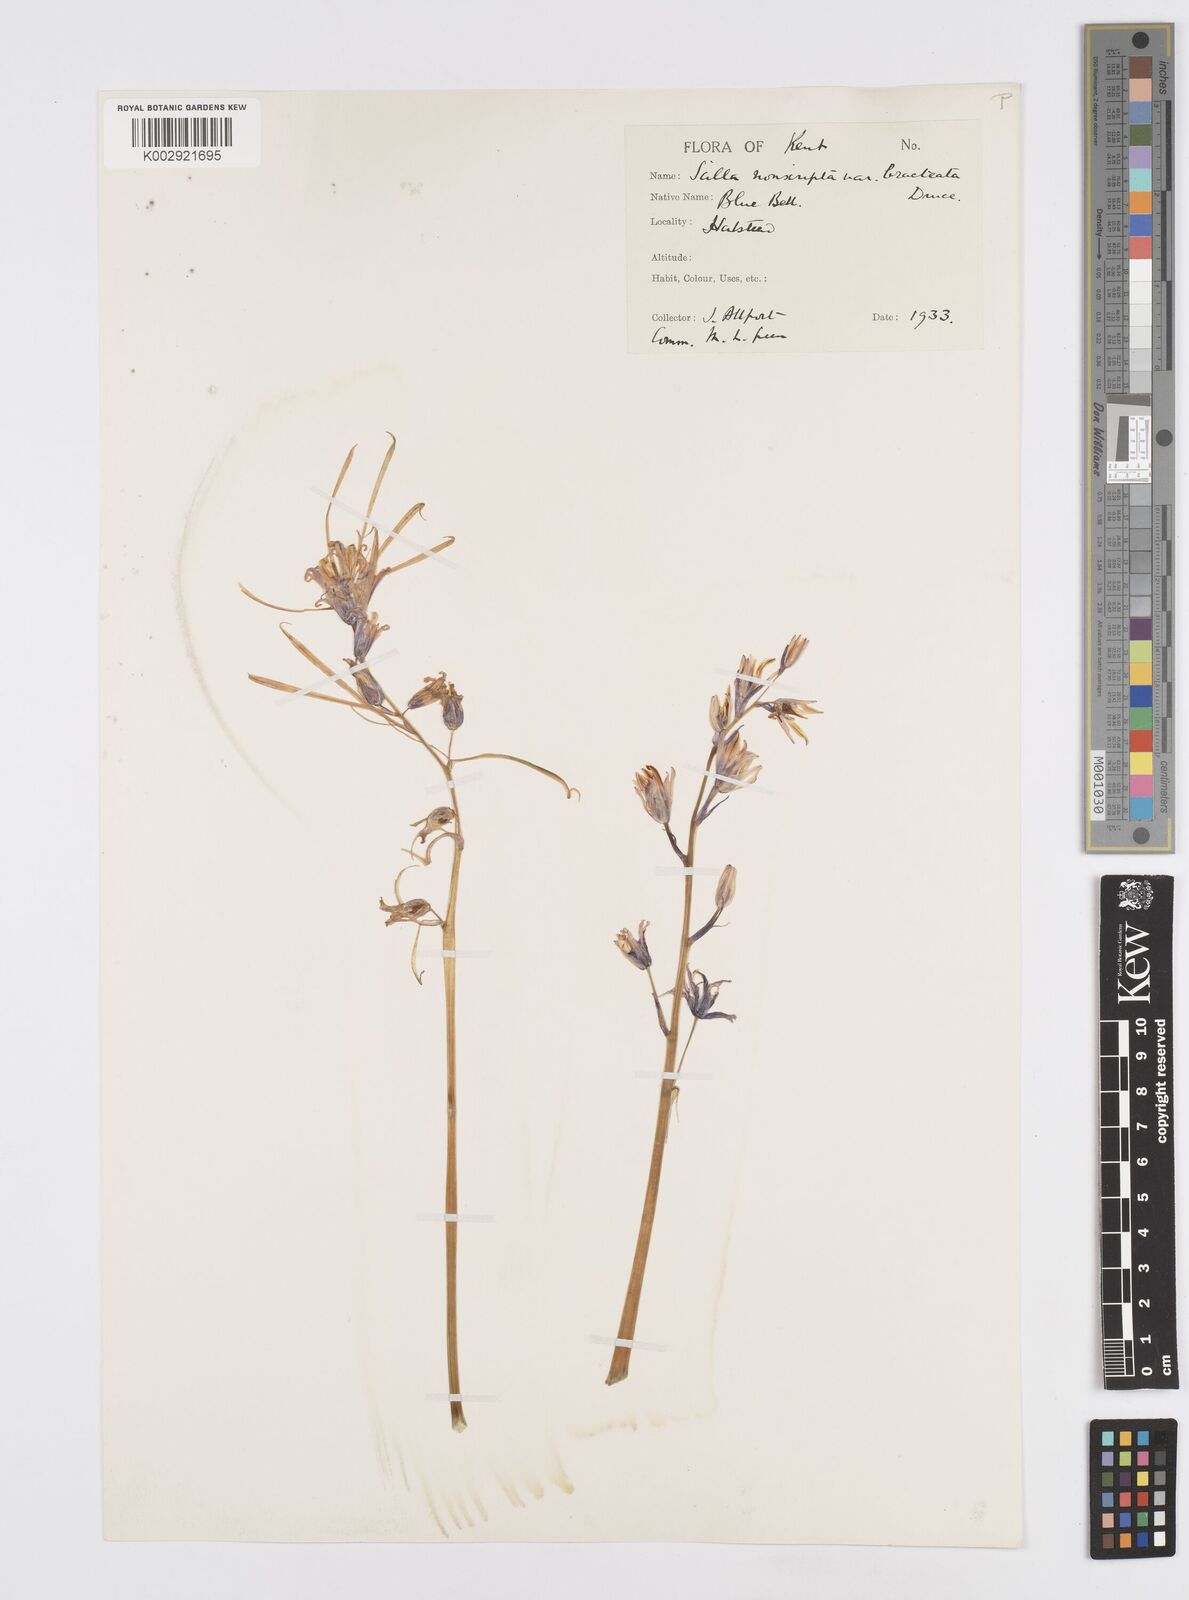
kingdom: Plantae
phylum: Tracheophyta
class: Liliopsida
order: Asparagales
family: Asparagaceae
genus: Hyacinthoides
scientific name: Hyacinthoides
